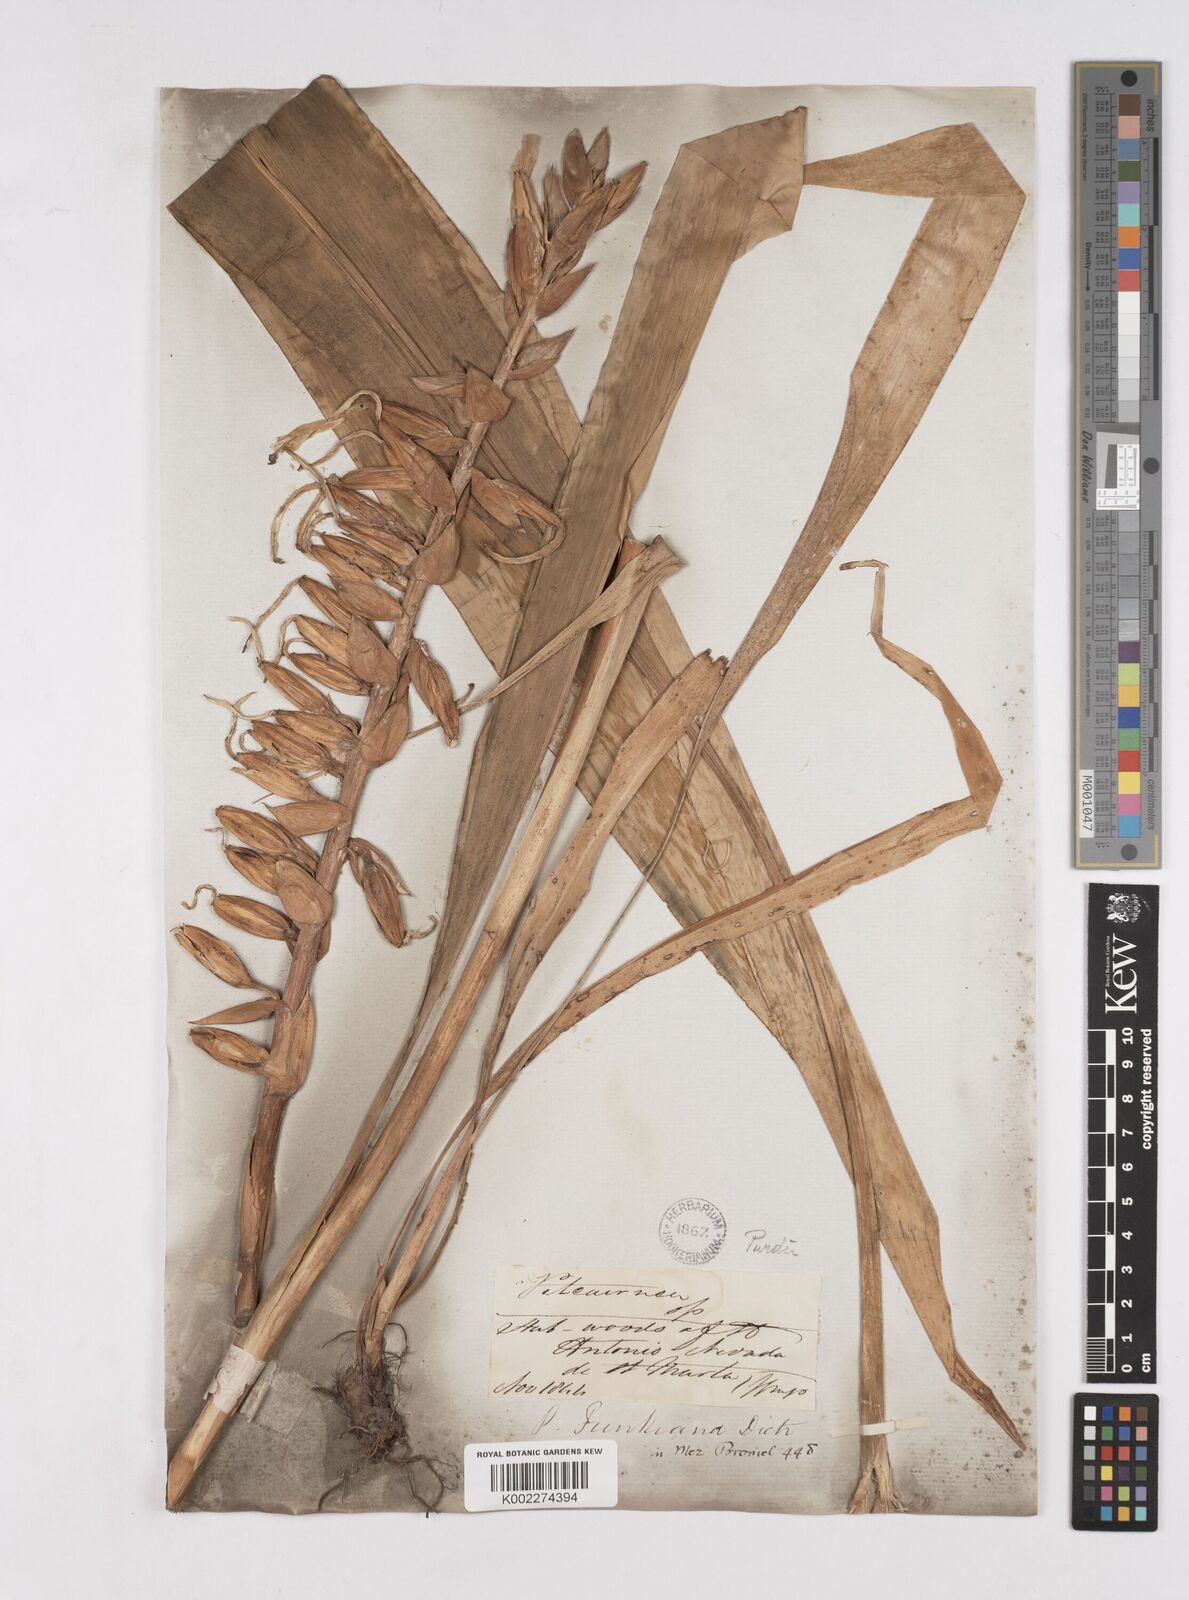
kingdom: Plantae
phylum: Tracheophyta
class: Liliopsida
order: Poales
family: Bromeliaceae
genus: Pitcairnia
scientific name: Pitcairnia
